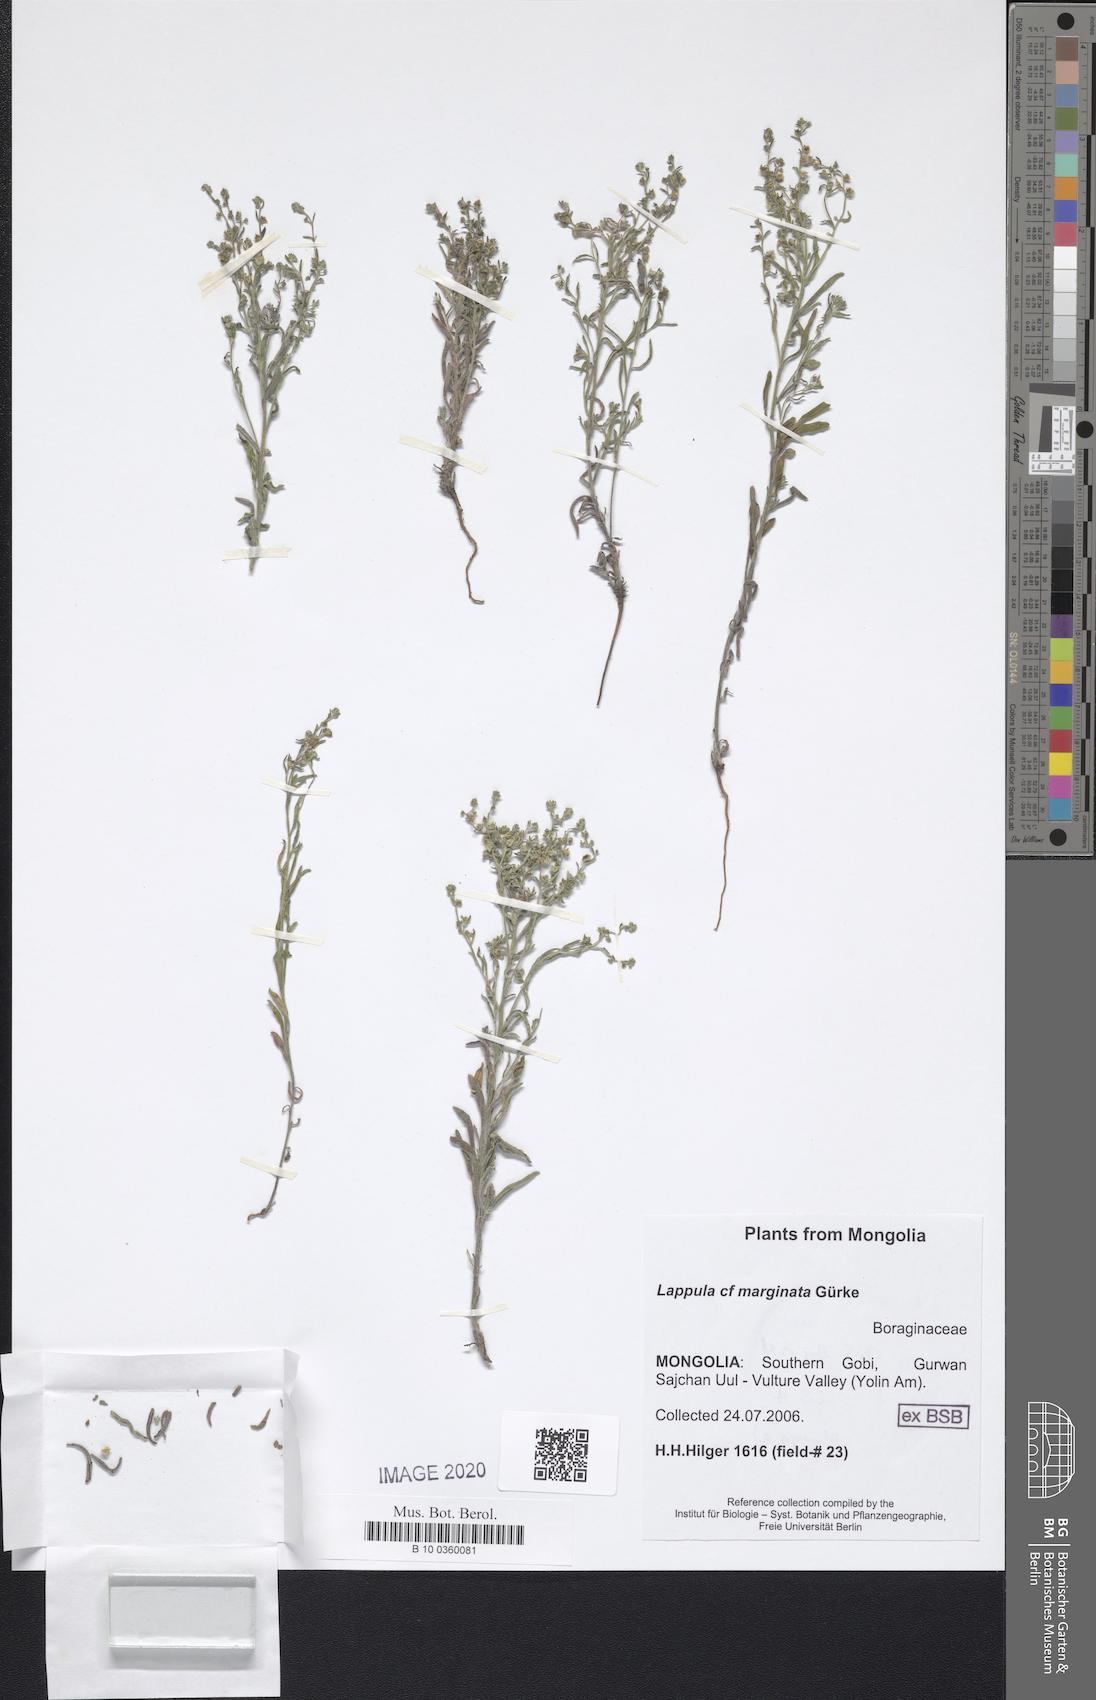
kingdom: Plantae
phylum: Tracheophyta
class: Magnoliopsida
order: Boraginales
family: Boraginaceae
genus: Lappula
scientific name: Lappula marginata
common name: Margined stickseed
